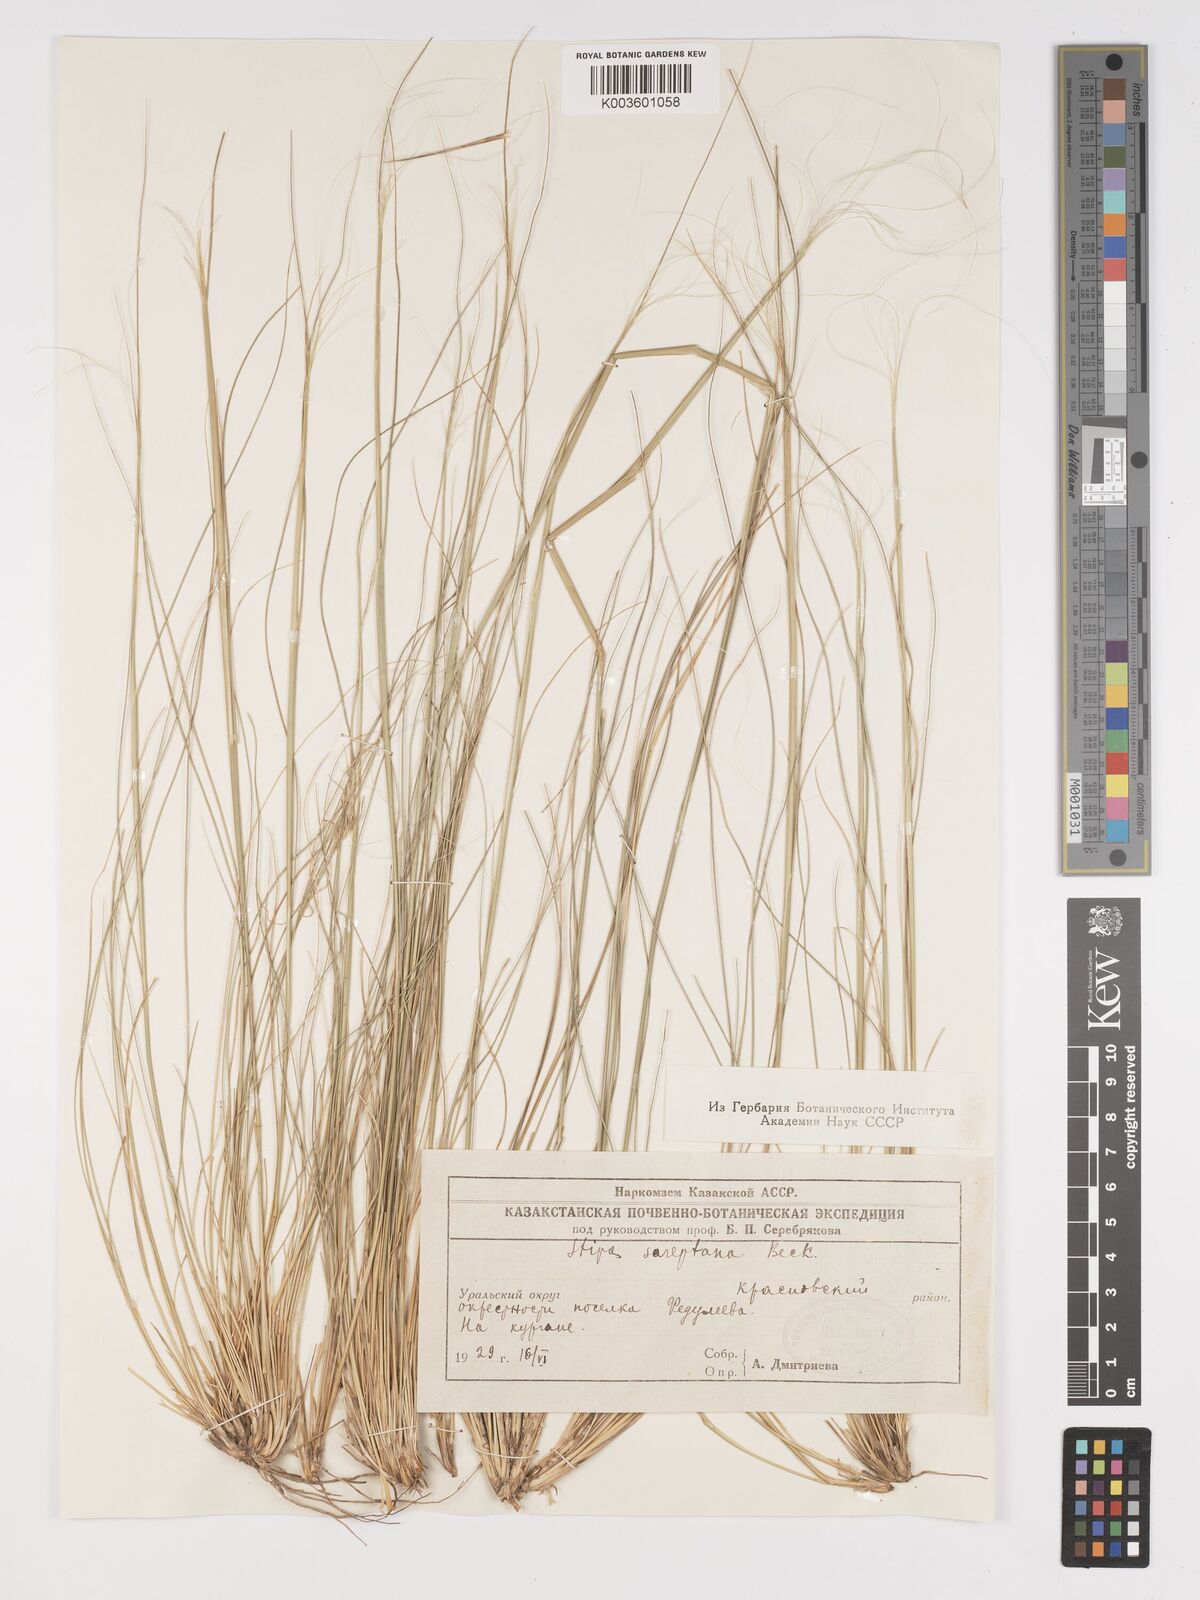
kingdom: Plantae
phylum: Tracheophyta
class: Liliopsida
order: Poales
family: Poaceae
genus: Stipa
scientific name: Stipa sareptana
